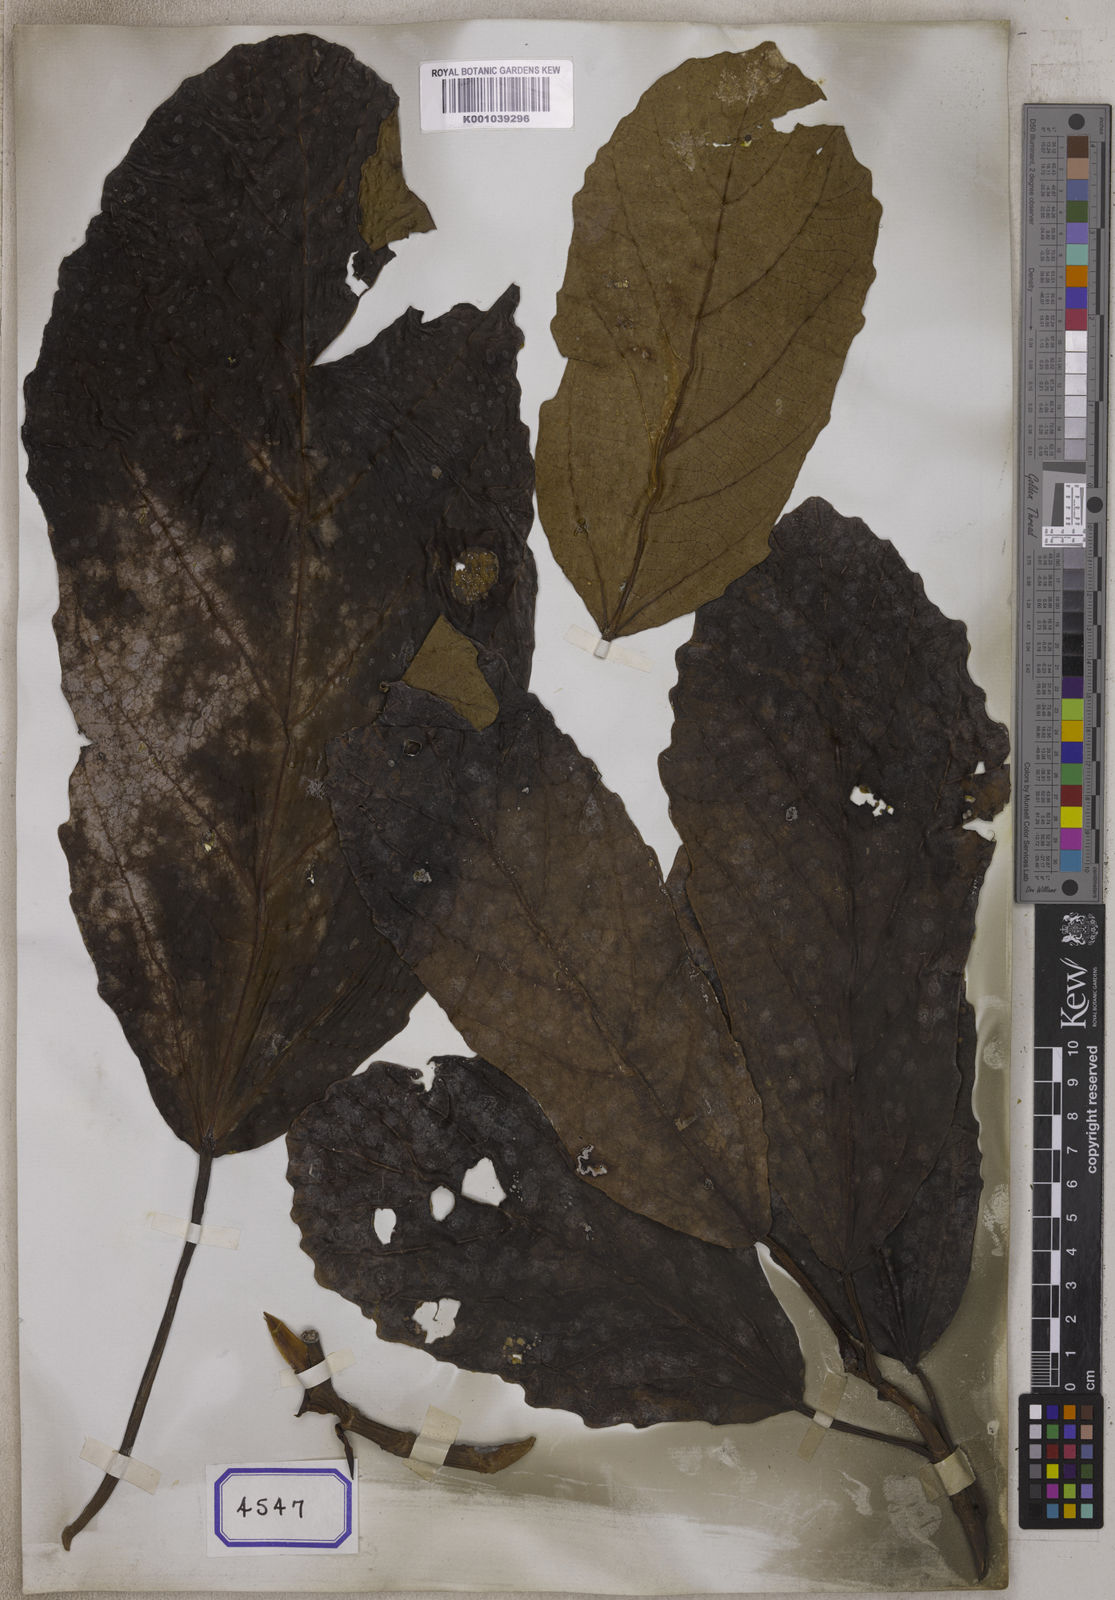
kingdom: Plantae
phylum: Tracheophyta
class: Magnoliopsida
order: Rosales
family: Moraceae
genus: Ficus
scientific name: Ficus
